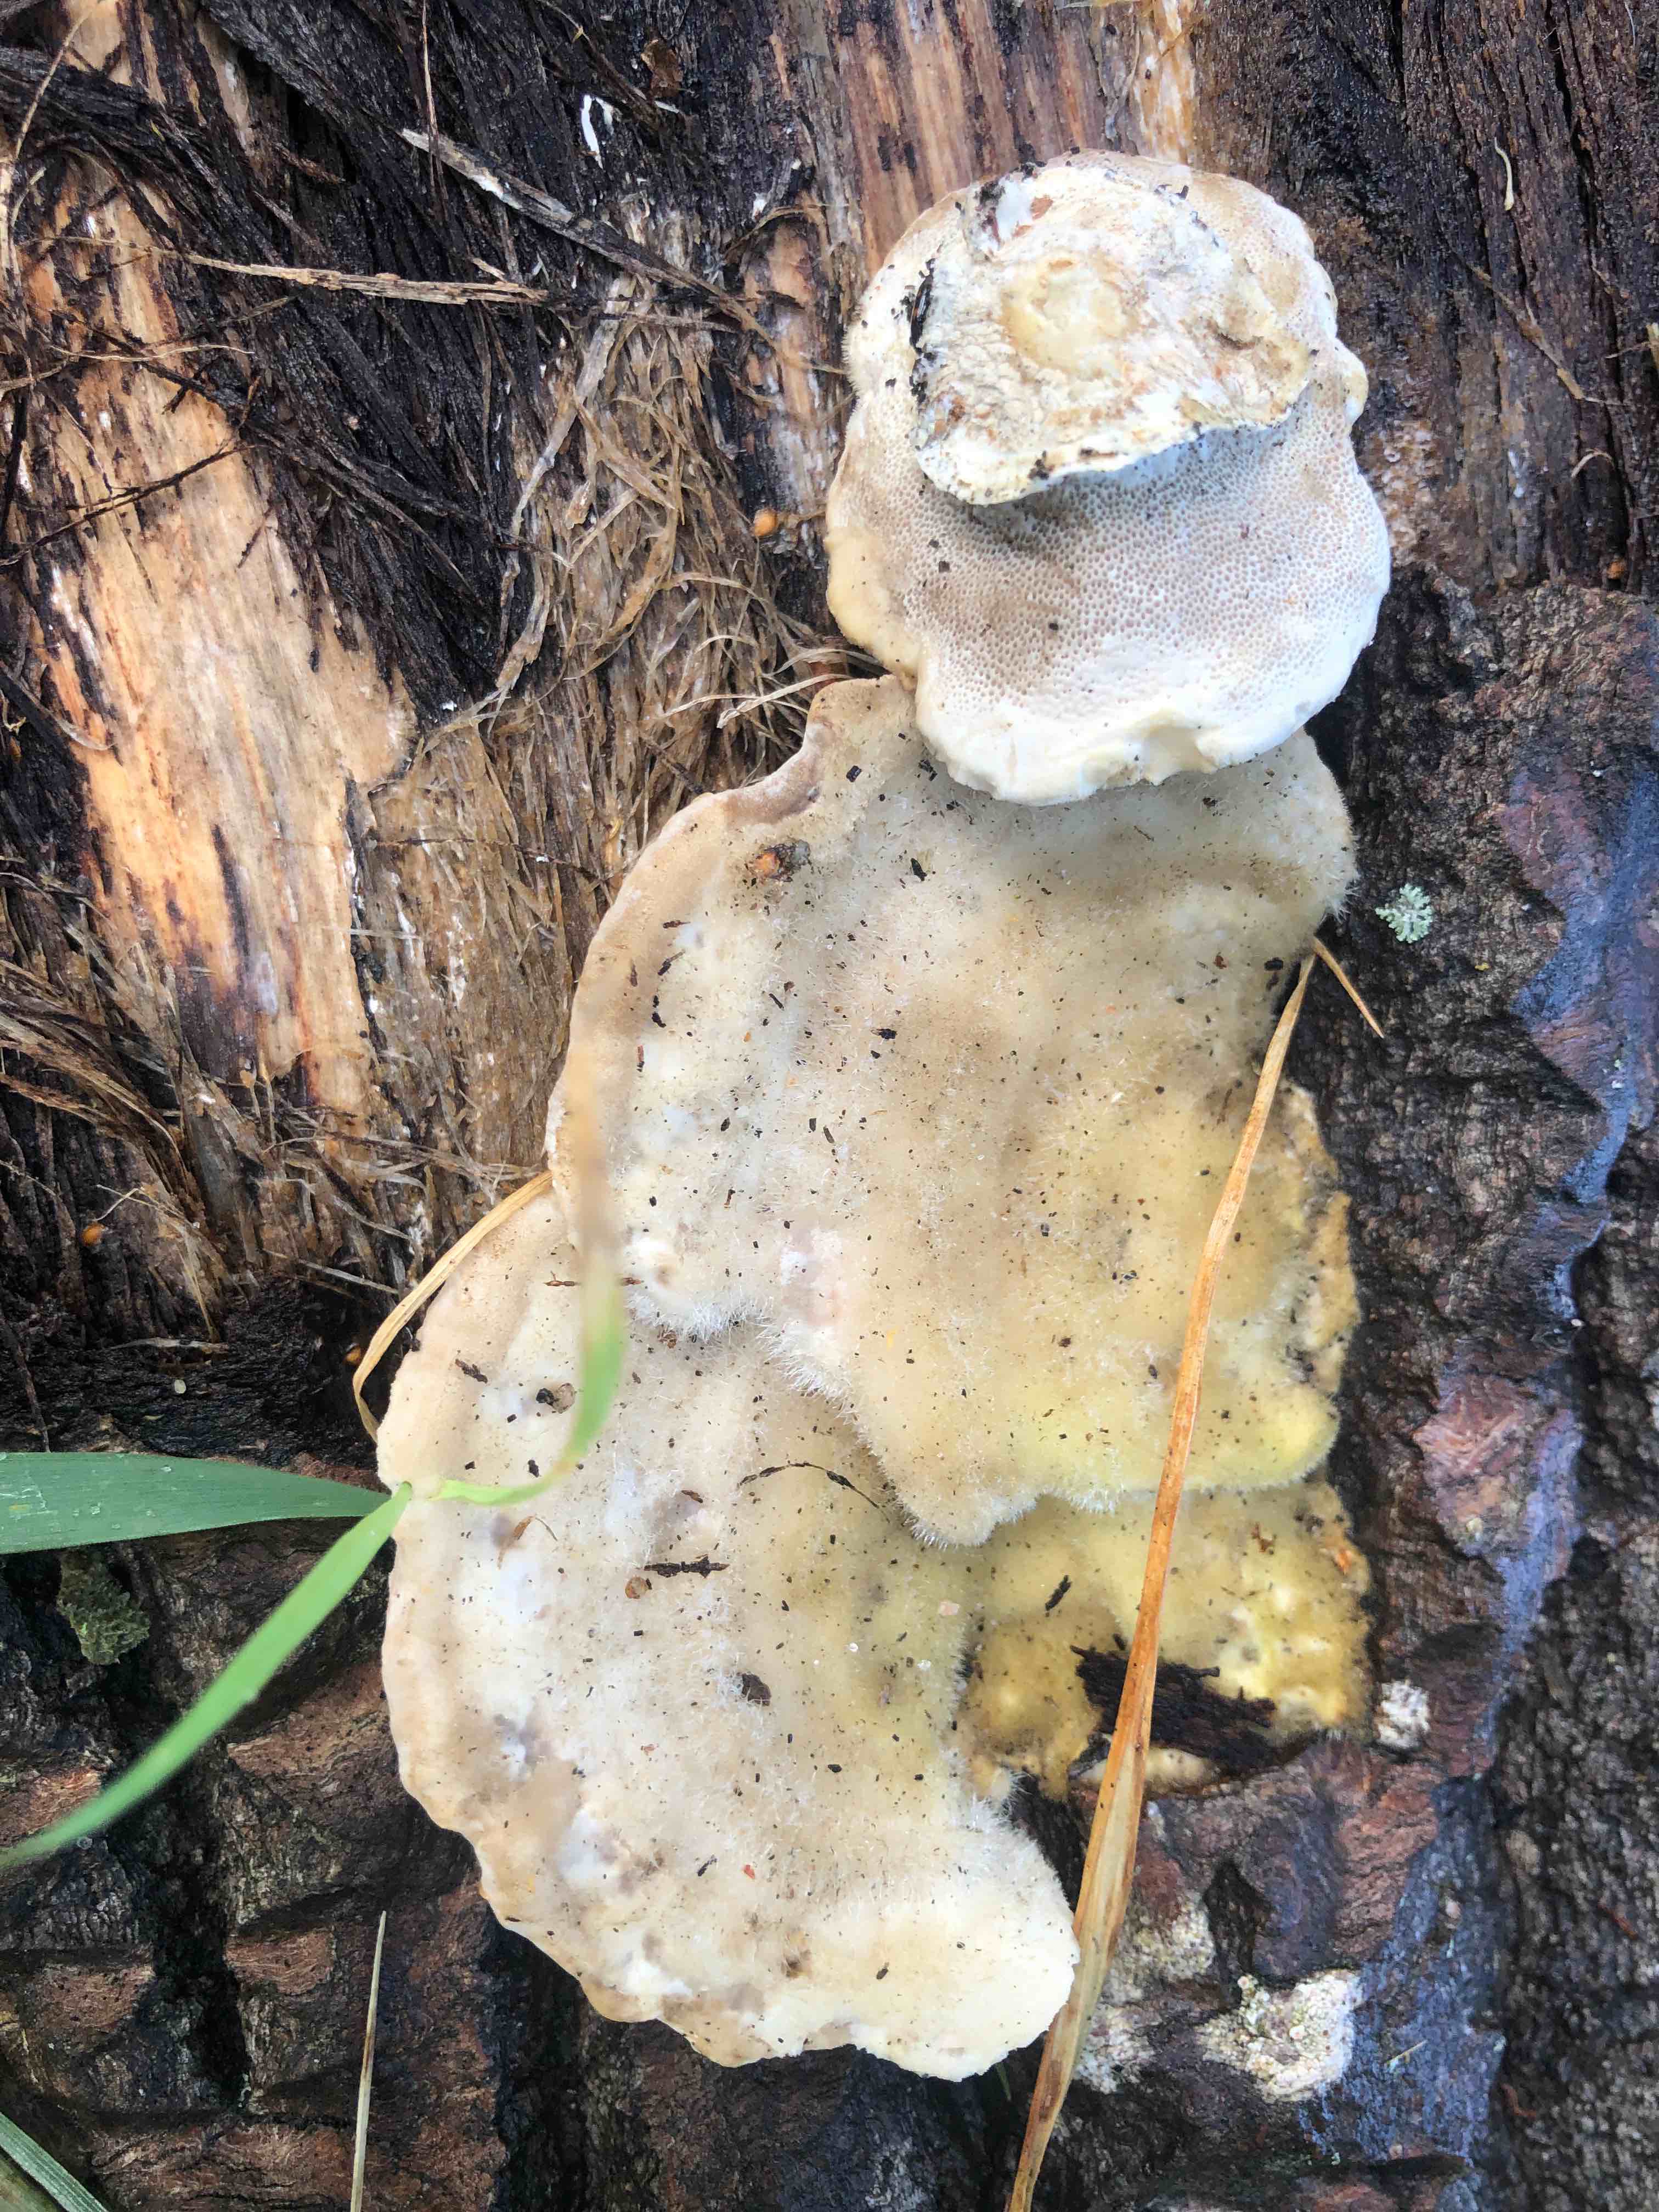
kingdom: Fungi
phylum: Basidiomycota
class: Agaricomycetes
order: Polyporales
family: Polyporaceae
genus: Trametes
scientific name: Trametes hirsuta
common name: håret læderporesvamp
